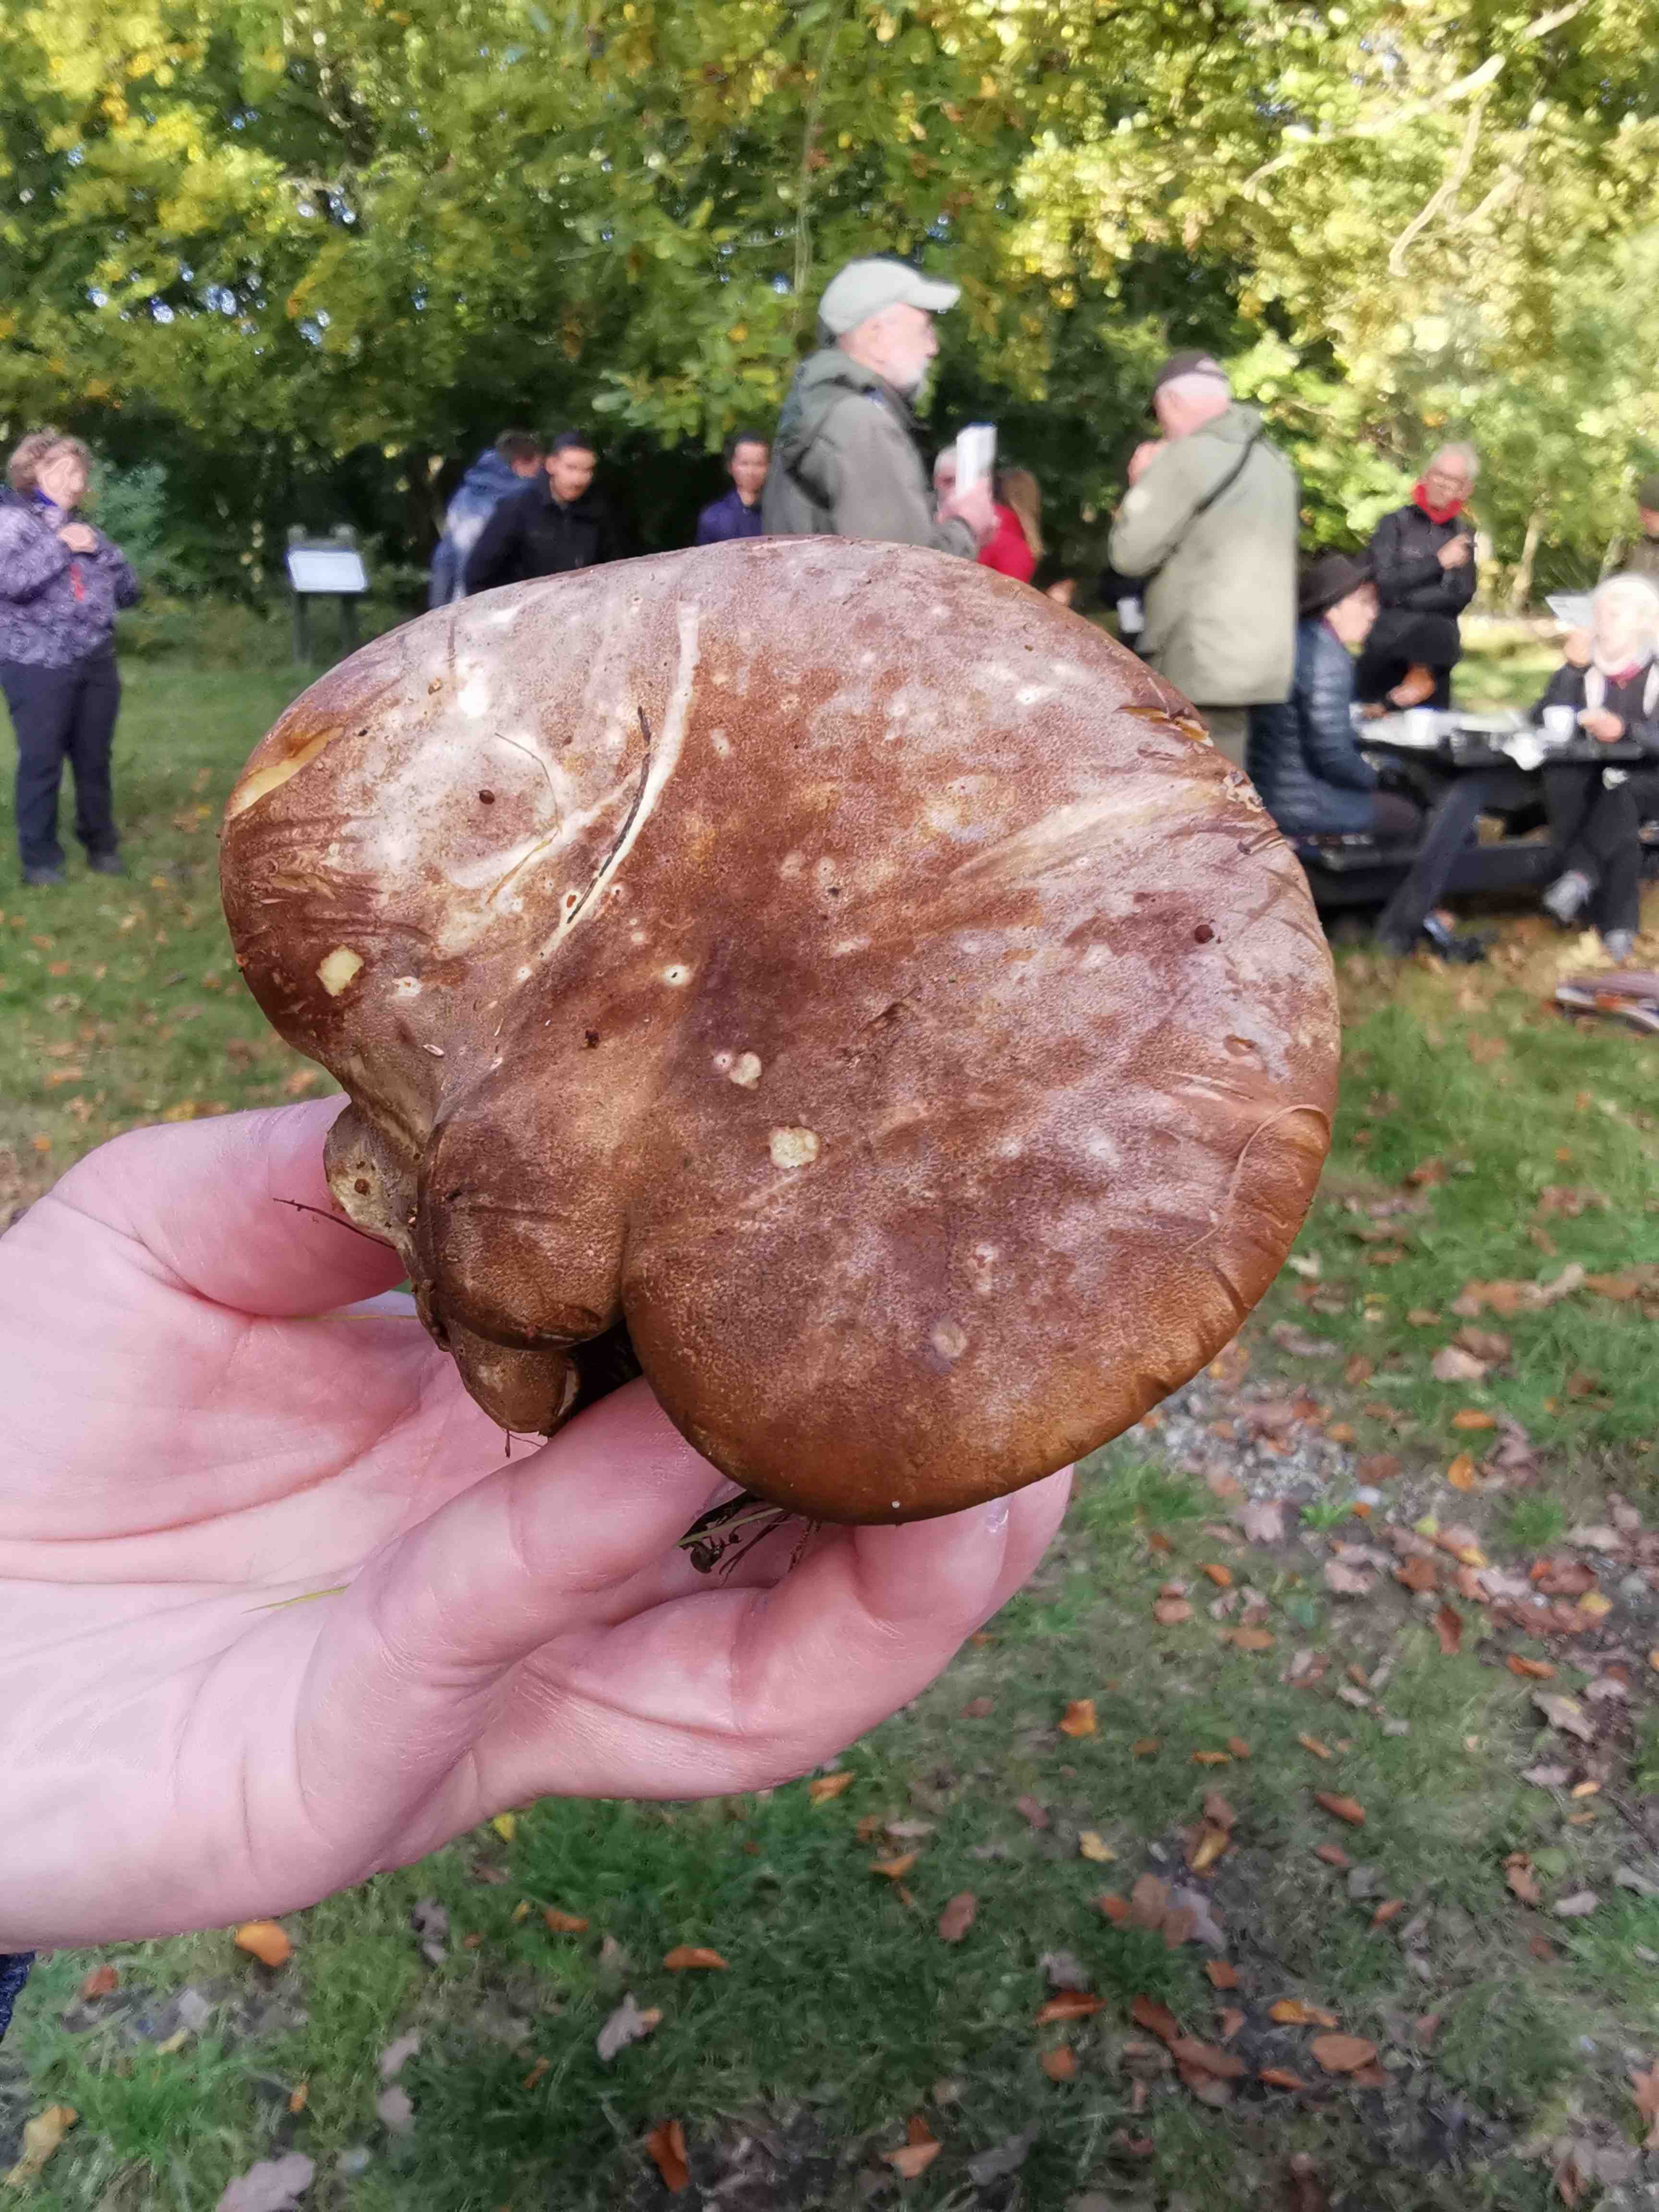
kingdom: Fungi
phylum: Basidiomycota
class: Agaricomycetes
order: Boletales
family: Tapinellaceae
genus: Tapinella
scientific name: Tapinella atrotomentosa
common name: sortfiltet viftesvamp
